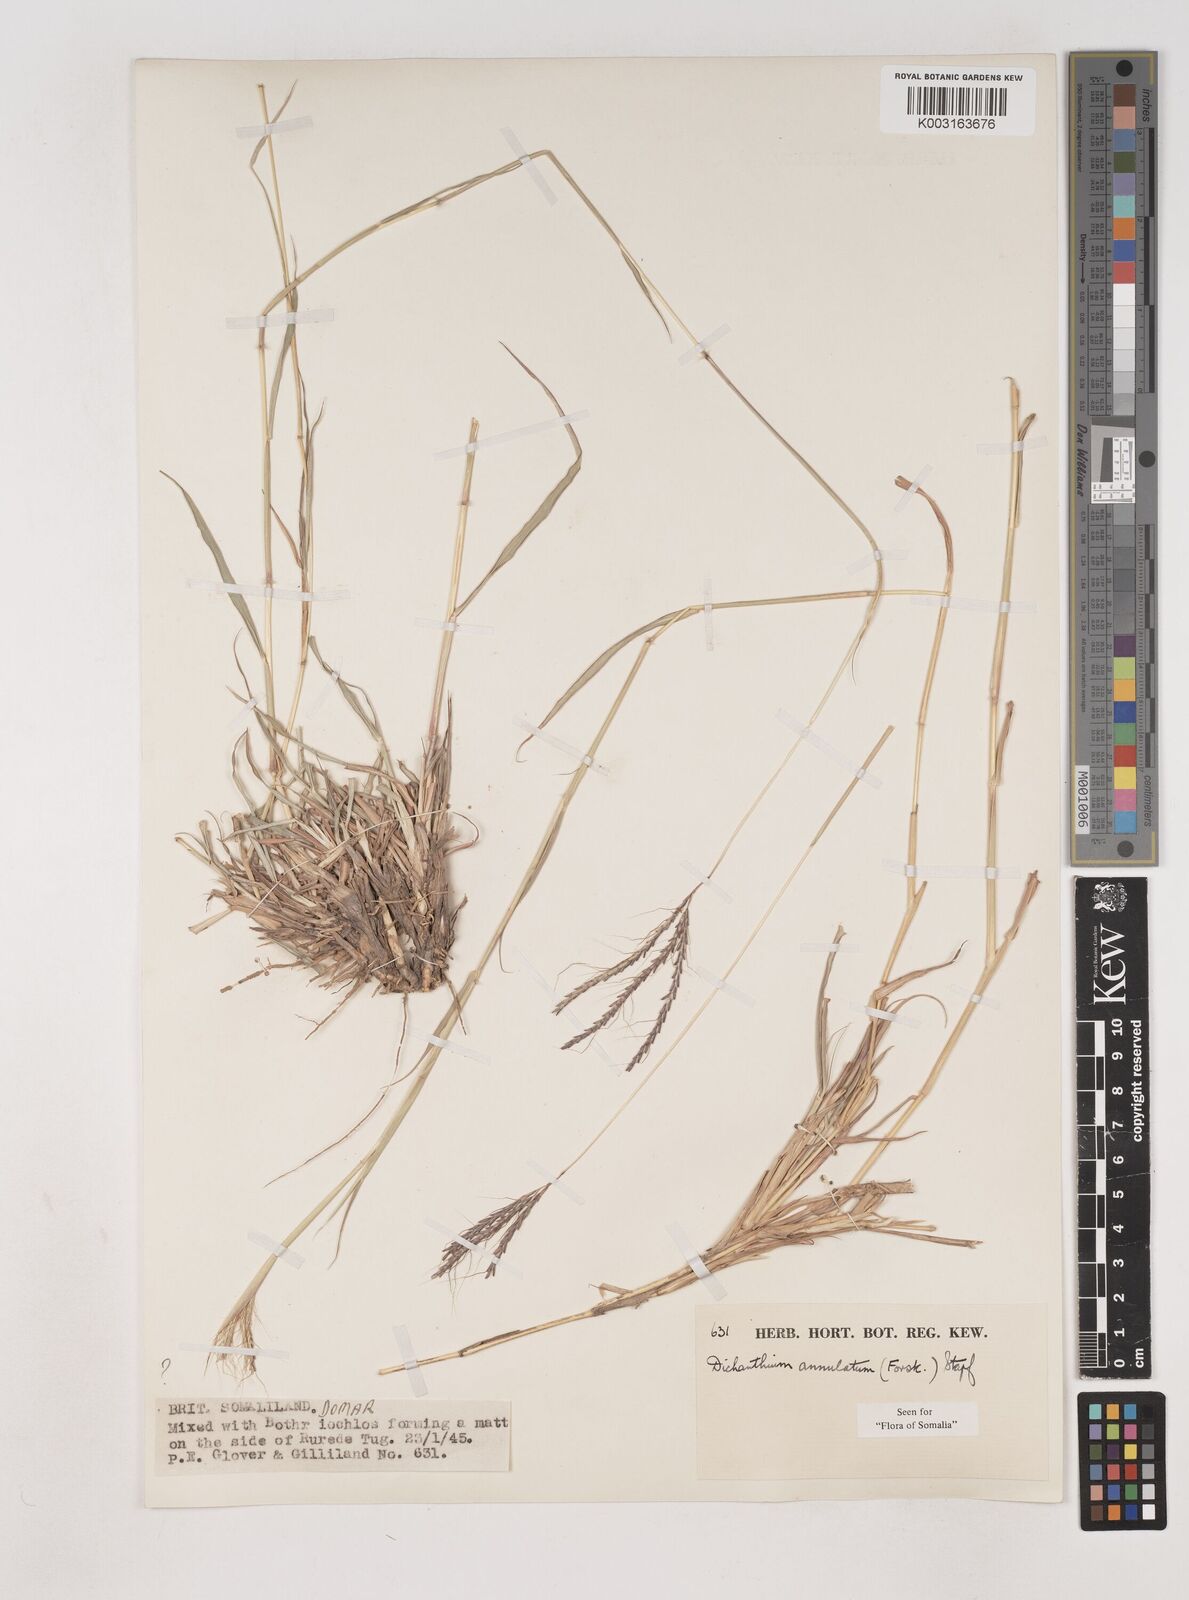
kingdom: Plantae
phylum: Tracheophyta
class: Liliopsida
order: Poales
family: Poaceae
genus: Dichanthium
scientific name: Dichanthium annulatum
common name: Kleberg's bluestem
